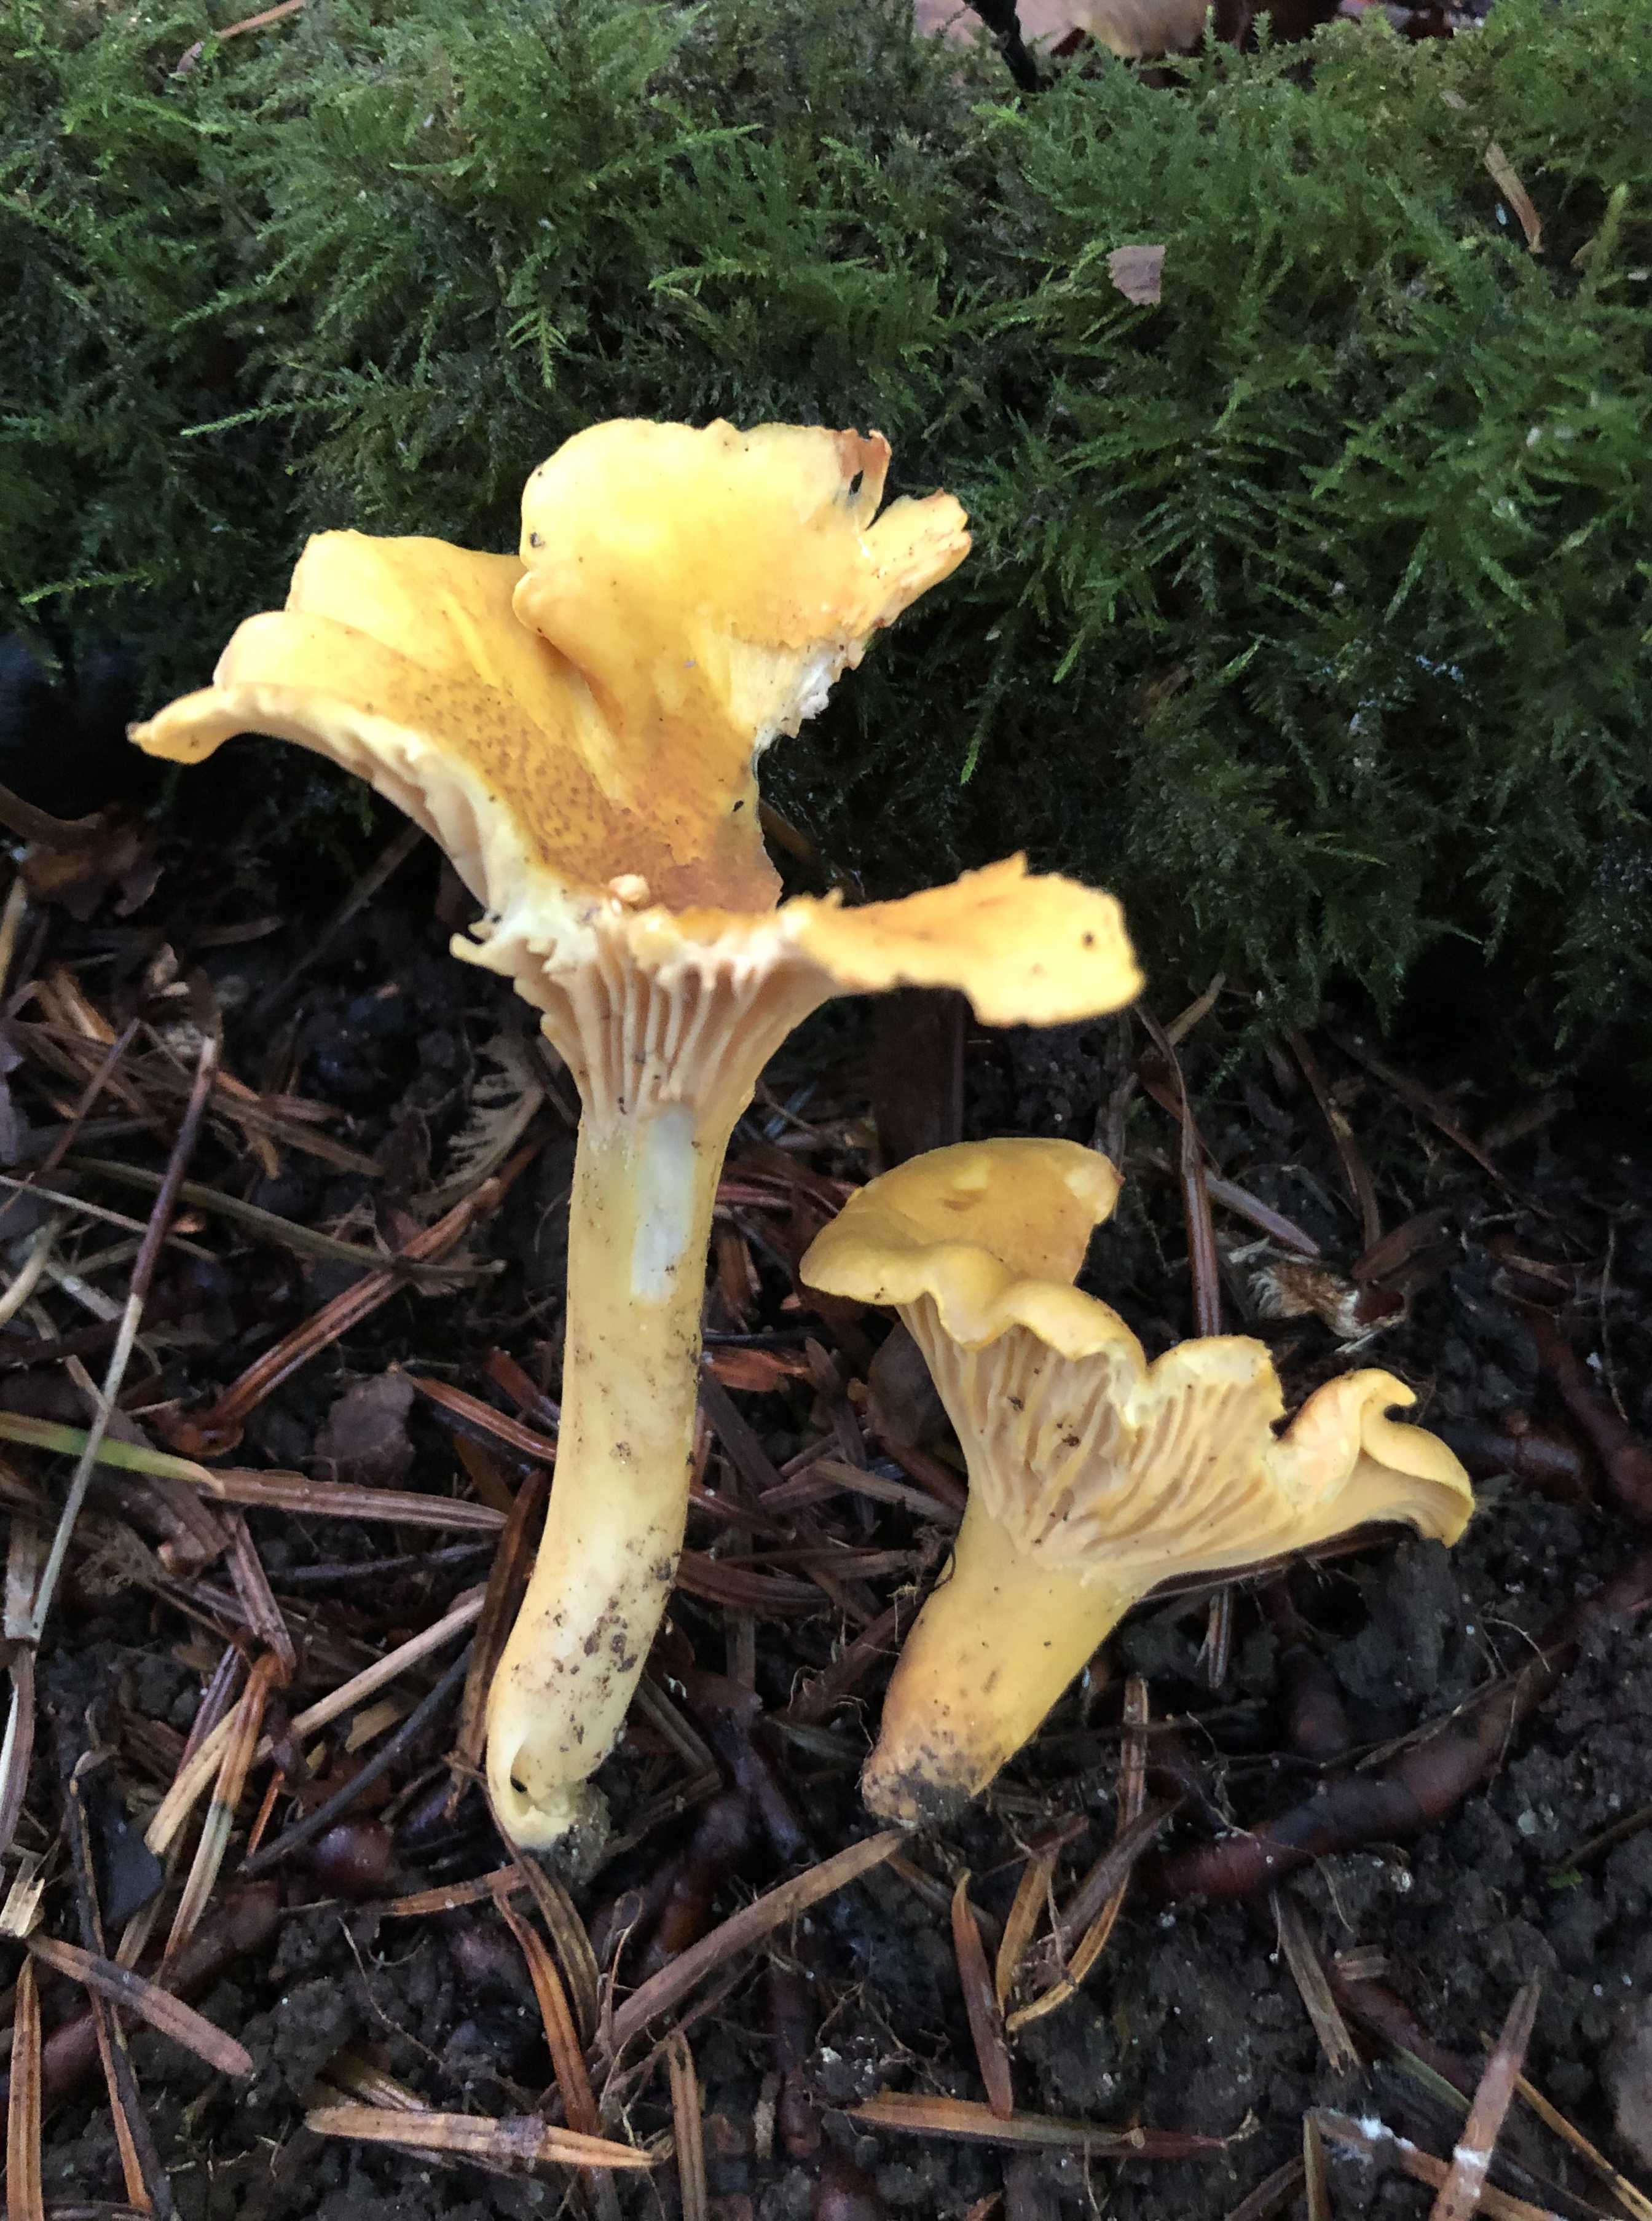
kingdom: Fungi
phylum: Basidiomycota
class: Agaricomycetes
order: Cantharellales
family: Hydnaceae
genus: Cantharellus
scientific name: Cantharellus cibarius
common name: almindelig kantarel
